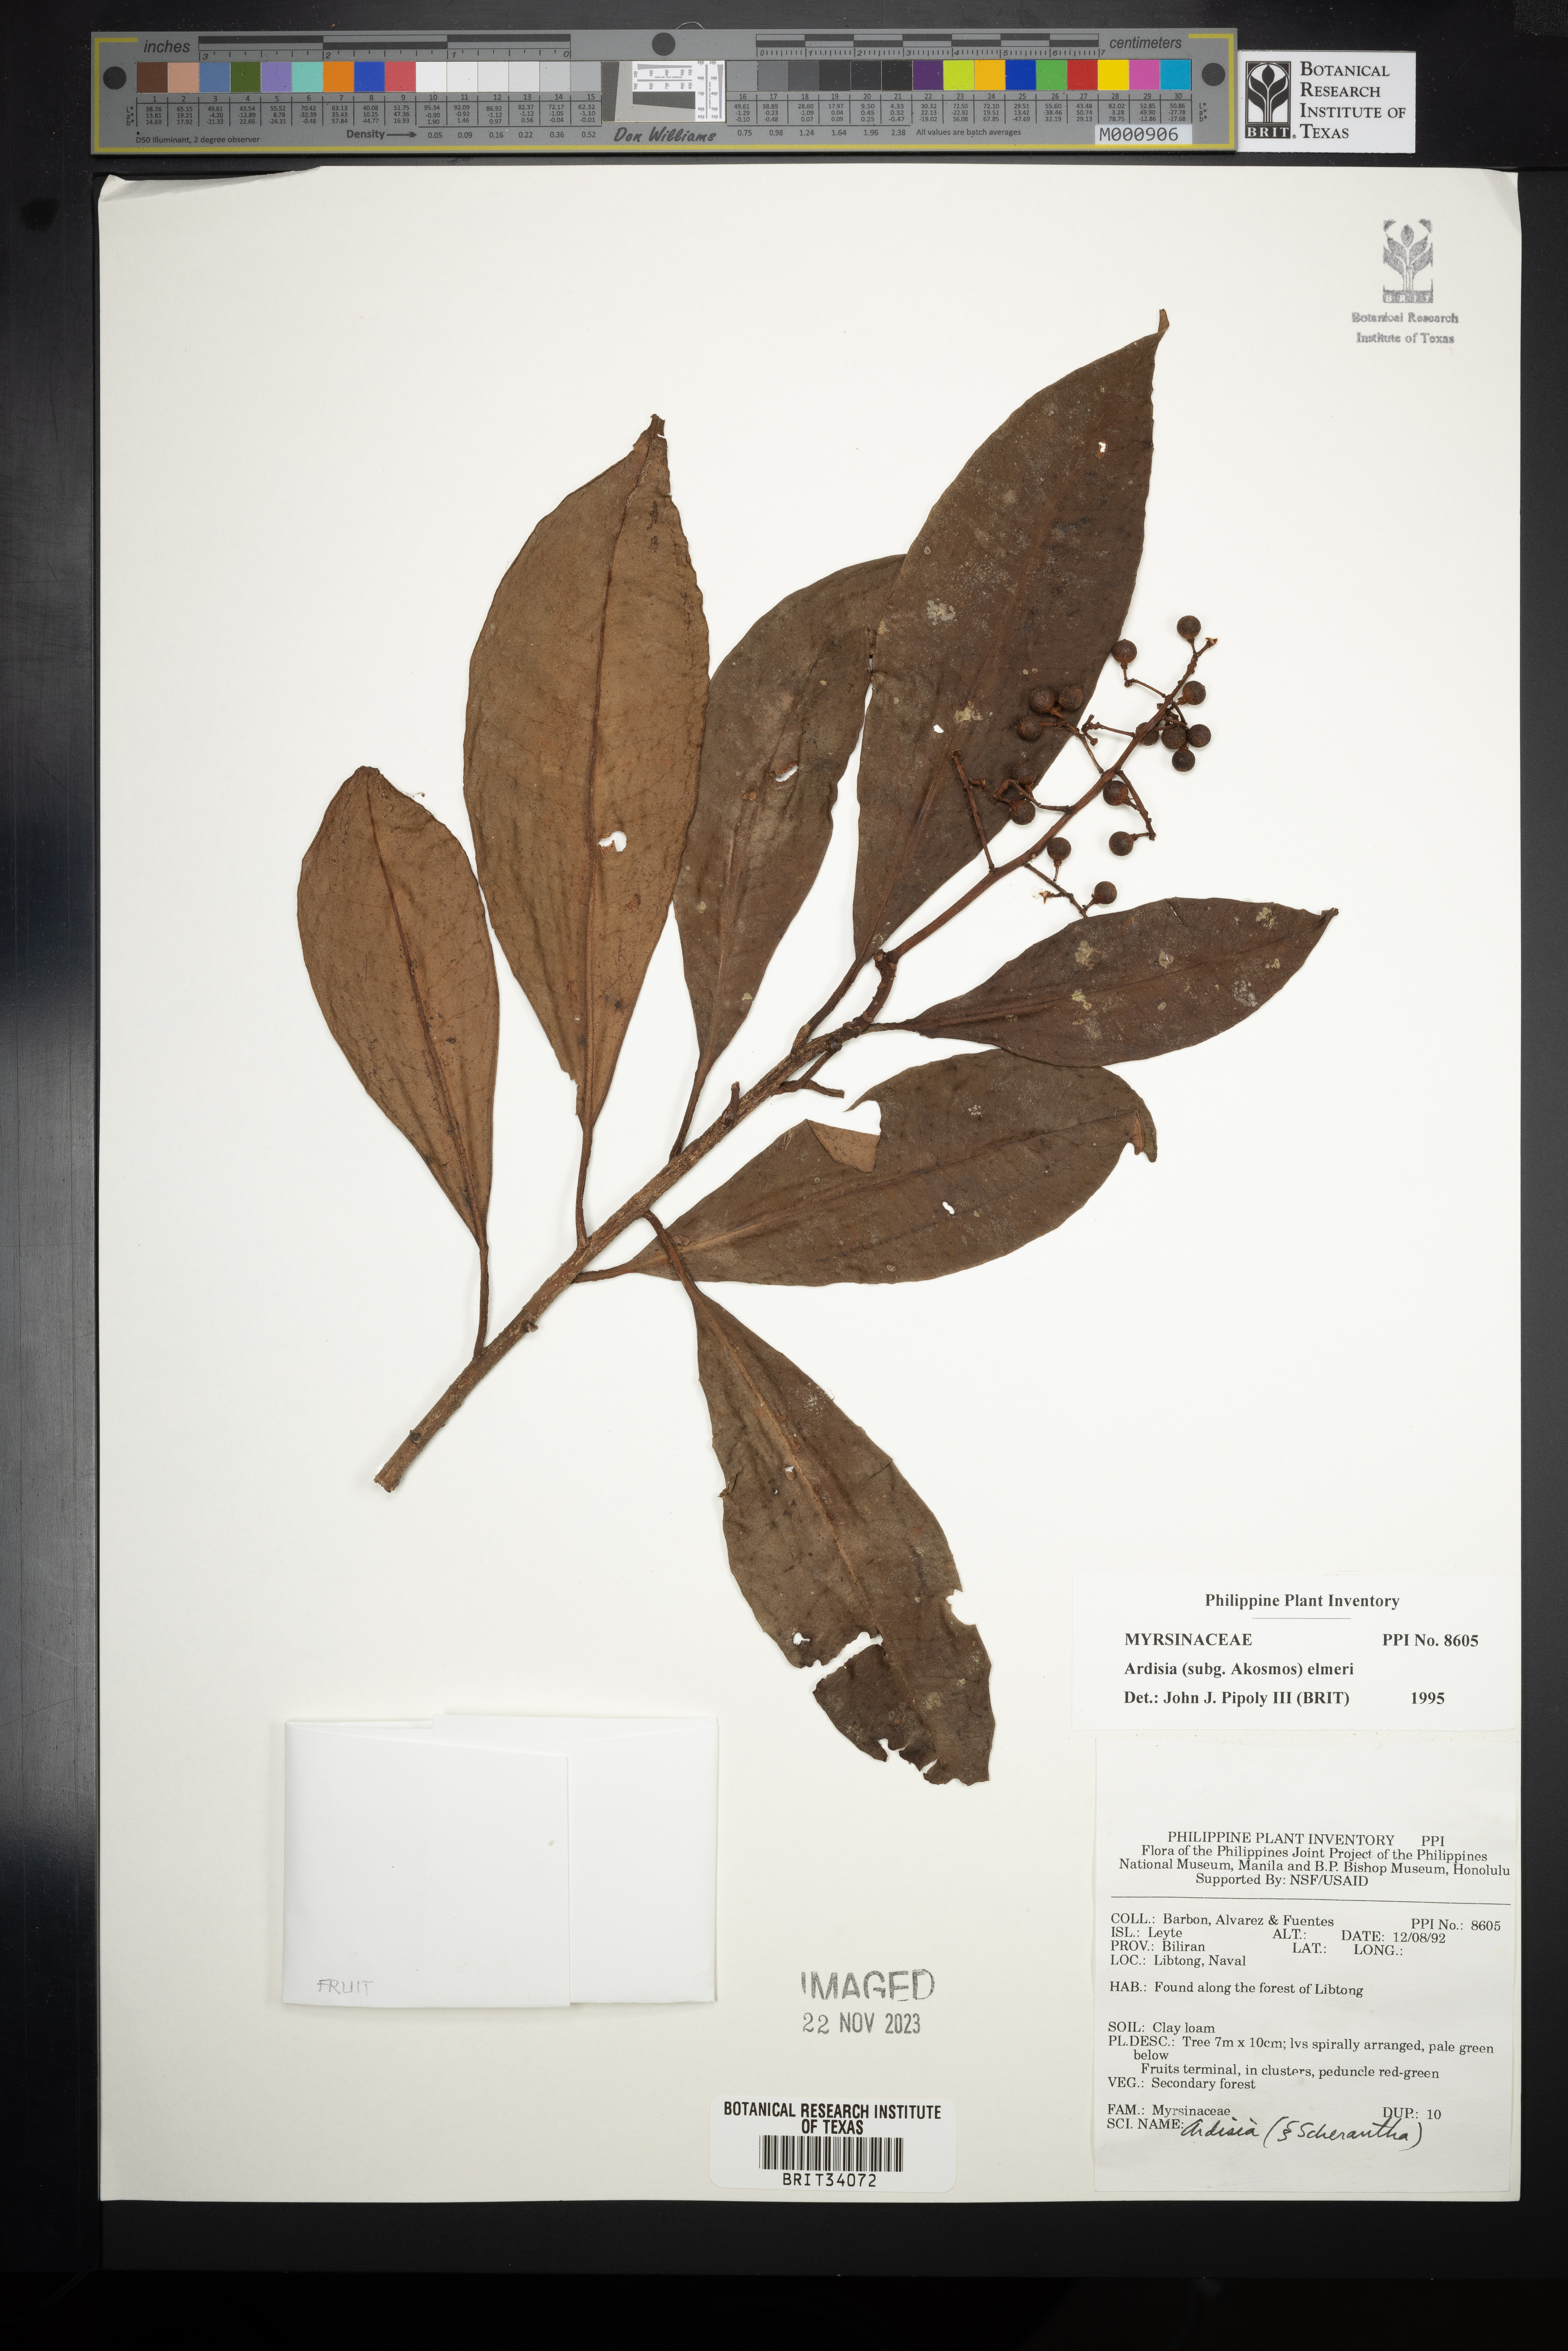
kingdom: Plantae
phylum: Tracheophyta
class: Magnoliopsida
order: Ericales
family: Primulaceae
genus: Ardisia
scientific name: Ardisia elmeri
